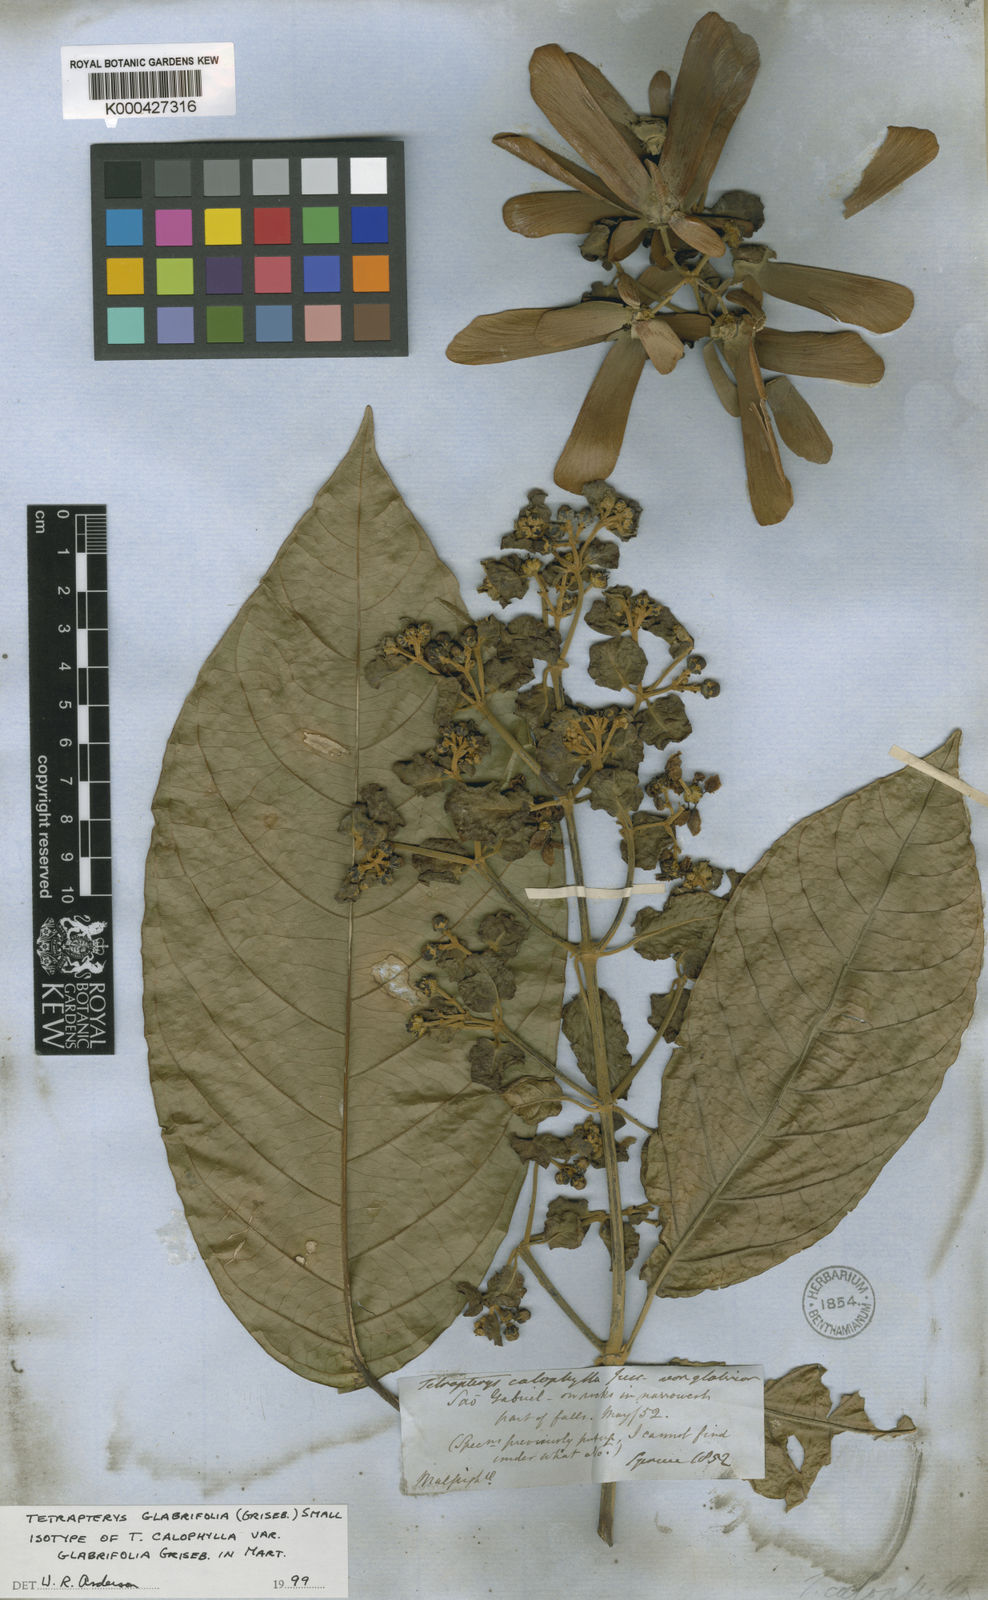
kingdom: Plantae
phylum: Tracheophyta
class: Magnoliopsida
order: Malpighiales
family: Malpighiaceae
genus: Tetrapterys
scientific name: Tetrapterys tinifolia
